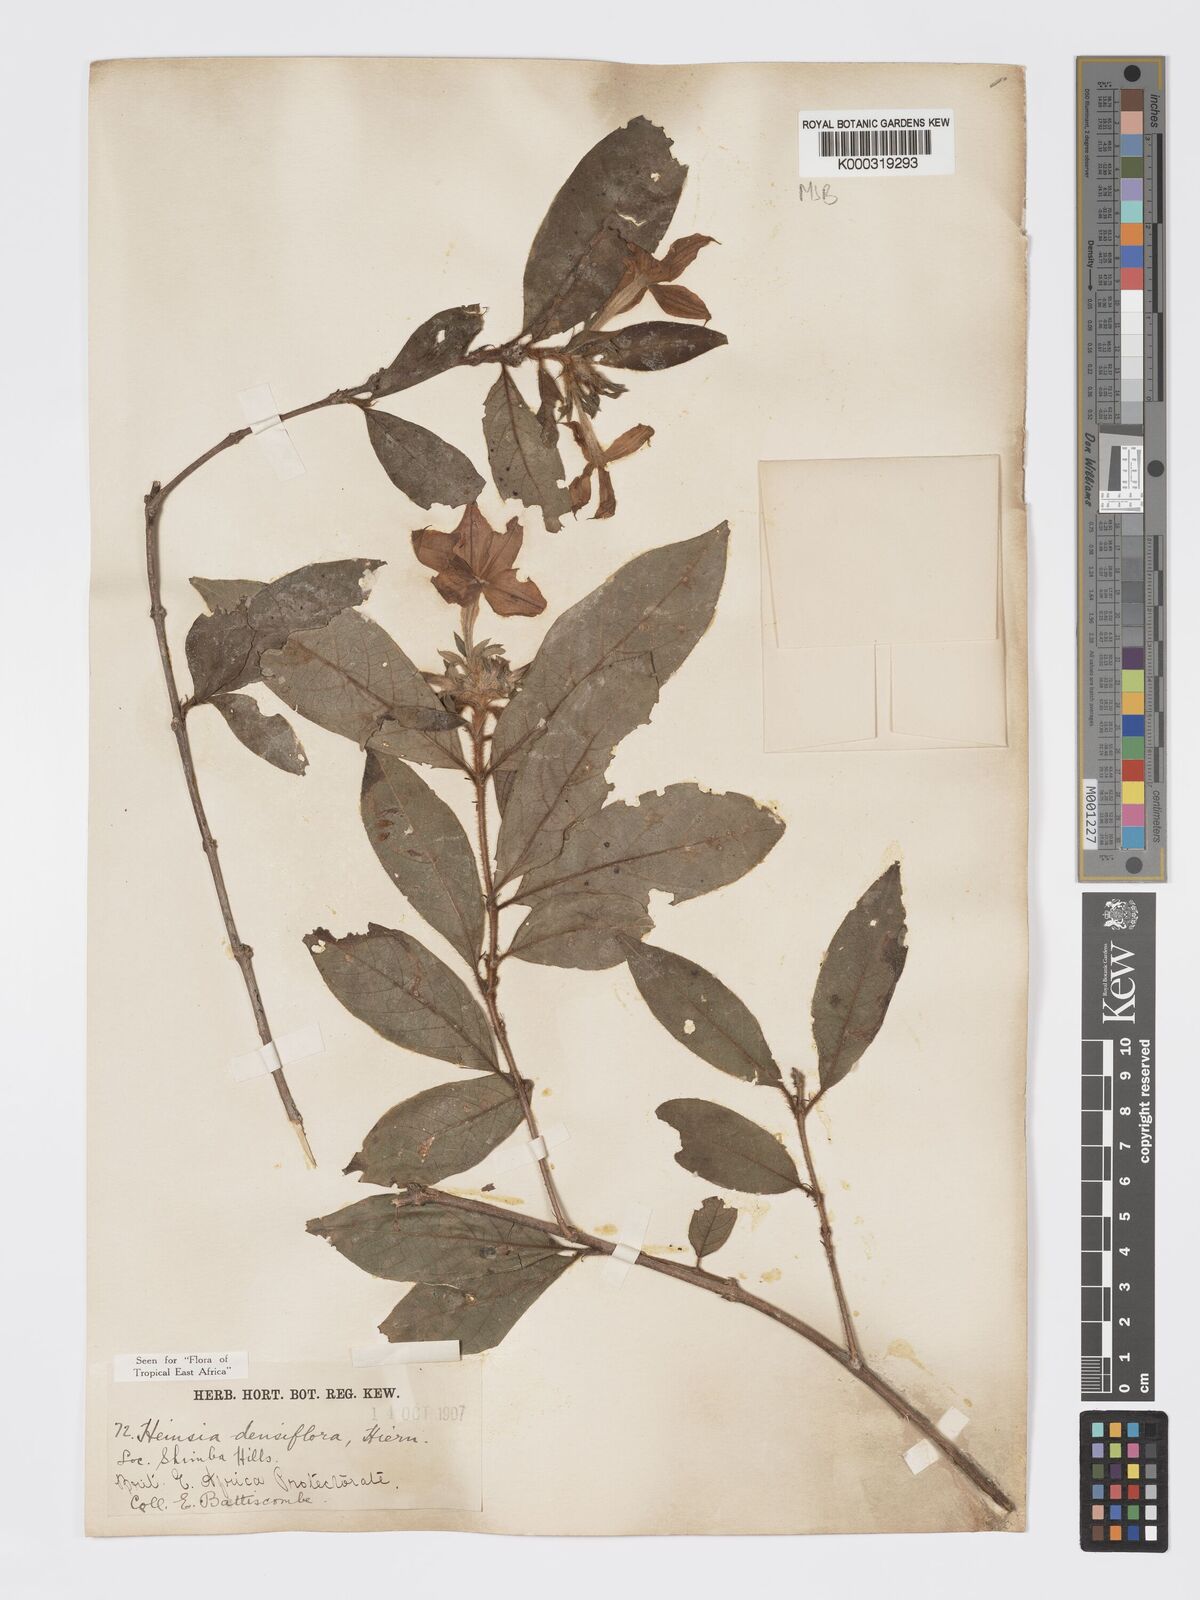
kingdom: Plantae
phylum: Tracheophyta
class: Magnoliopsida
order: Gentianales
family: Rubiaceae
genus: Heinsia
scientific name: Heinsia zanzibarica
